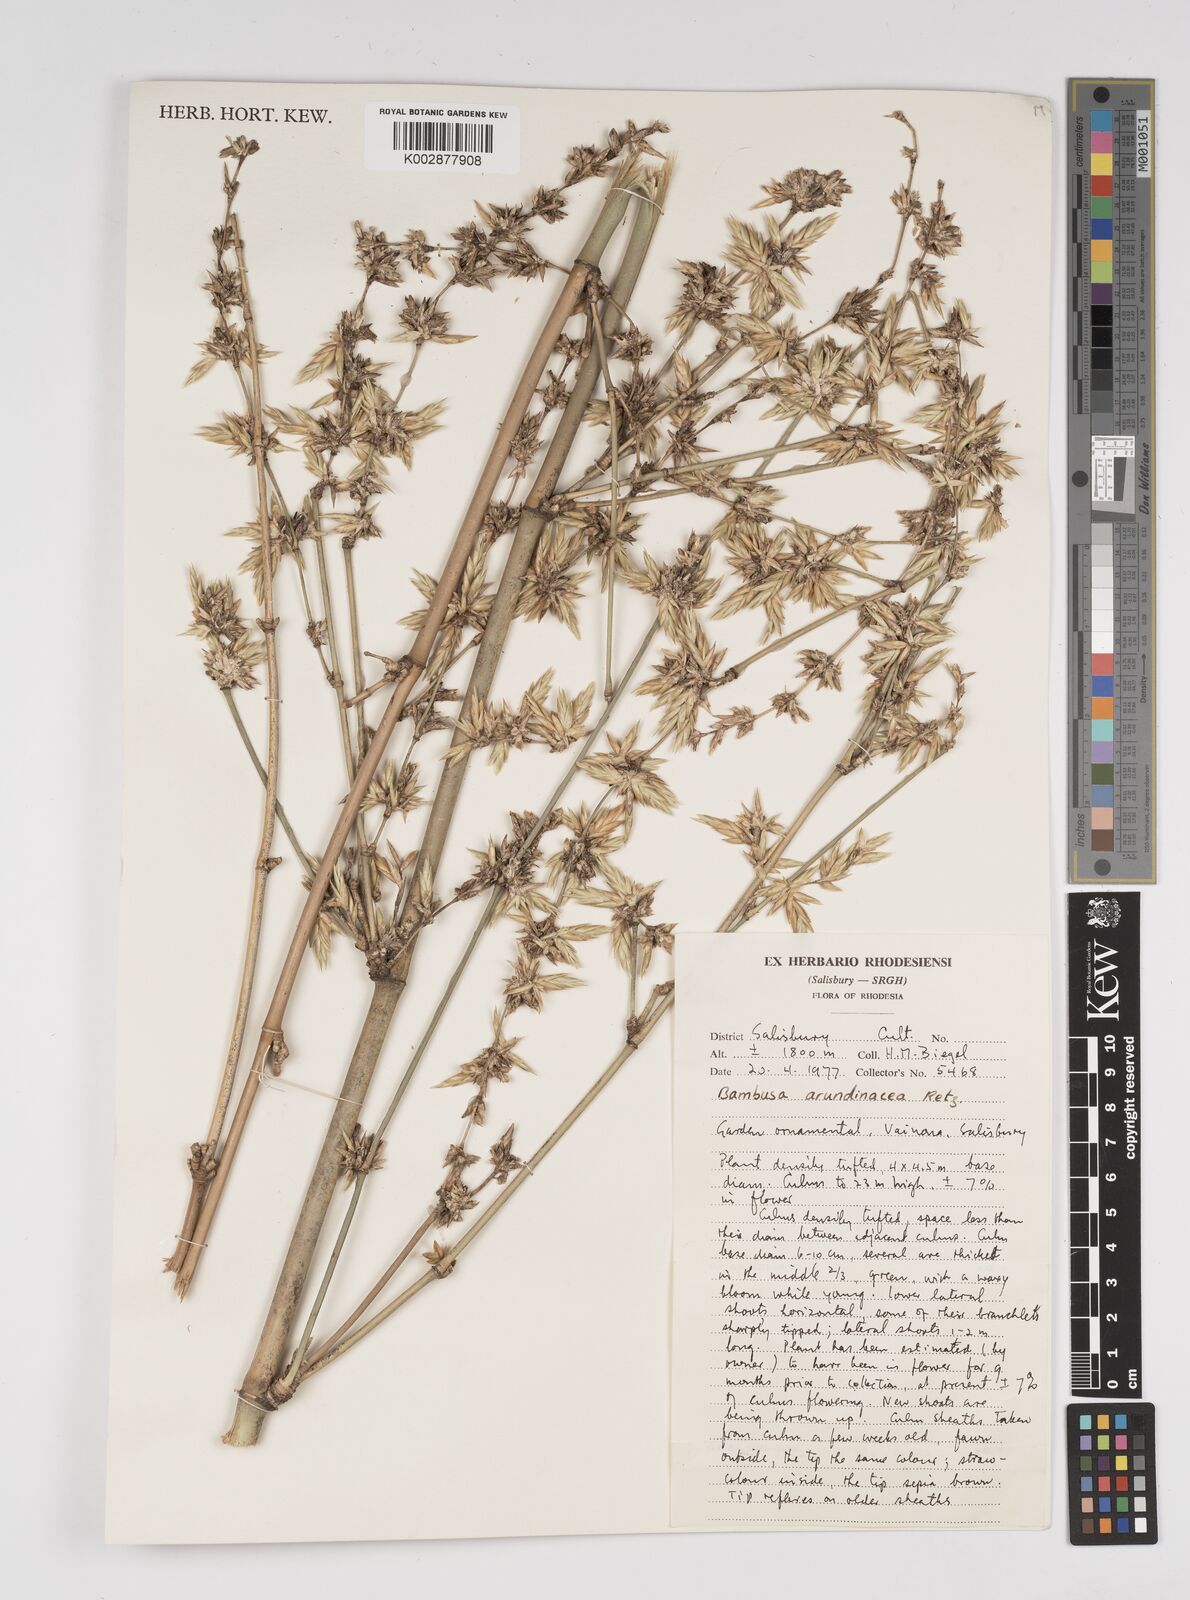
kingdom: Plantae
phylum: Tracheophyta
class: Liliopsida
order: Poales
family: Poaceae
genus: Bambusa
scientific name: Bambusa bambos
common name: Indian thorny bamboo
